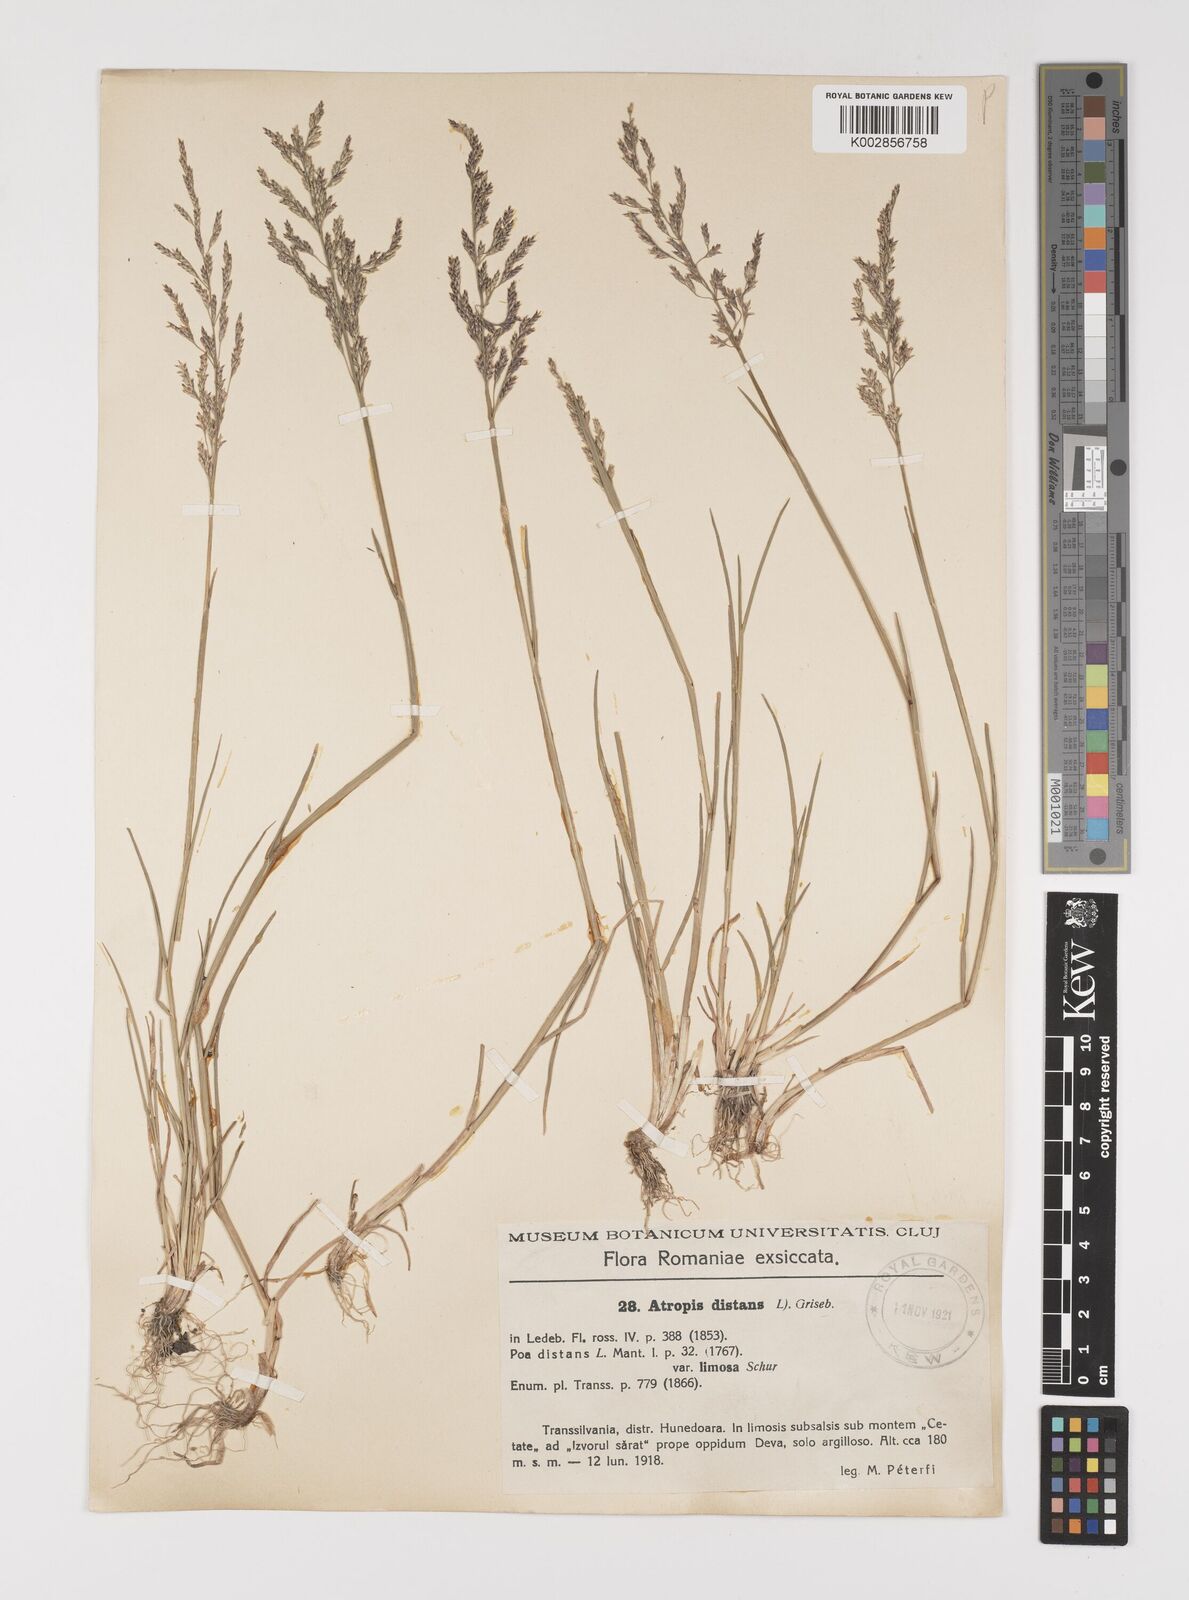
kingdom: Plantae
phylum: Tracheophyta
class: Liliopsida
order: Poales
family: Poaceae
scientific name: Poaceae
